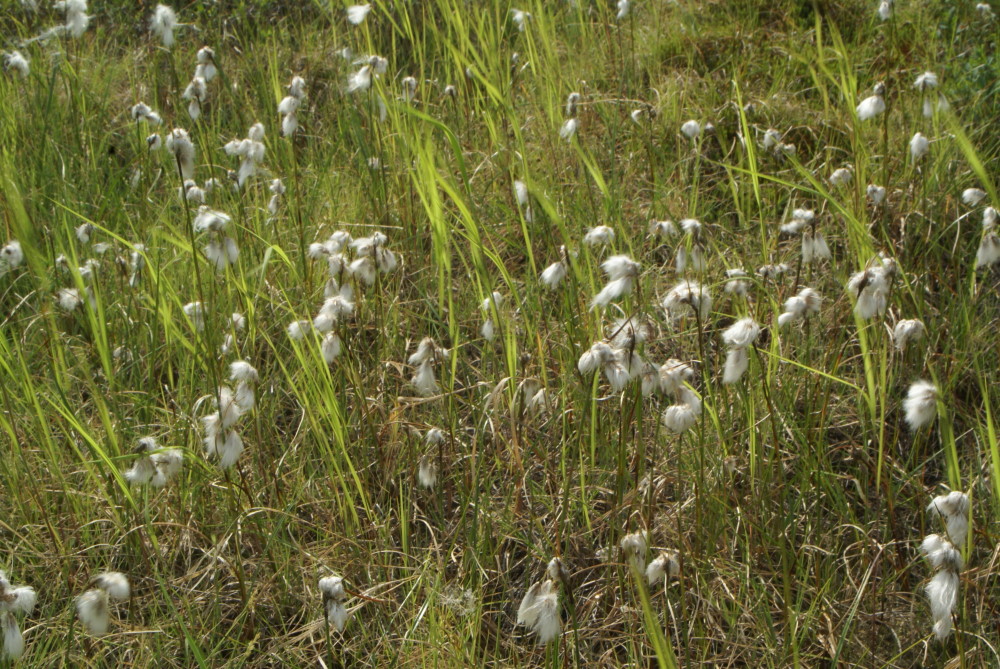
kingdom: Plantae
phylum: Tracheophyta
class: Liliopsida
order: Poales
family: Cyperaceae
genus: Eriophorum
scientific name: Eriophorum vaginatum
